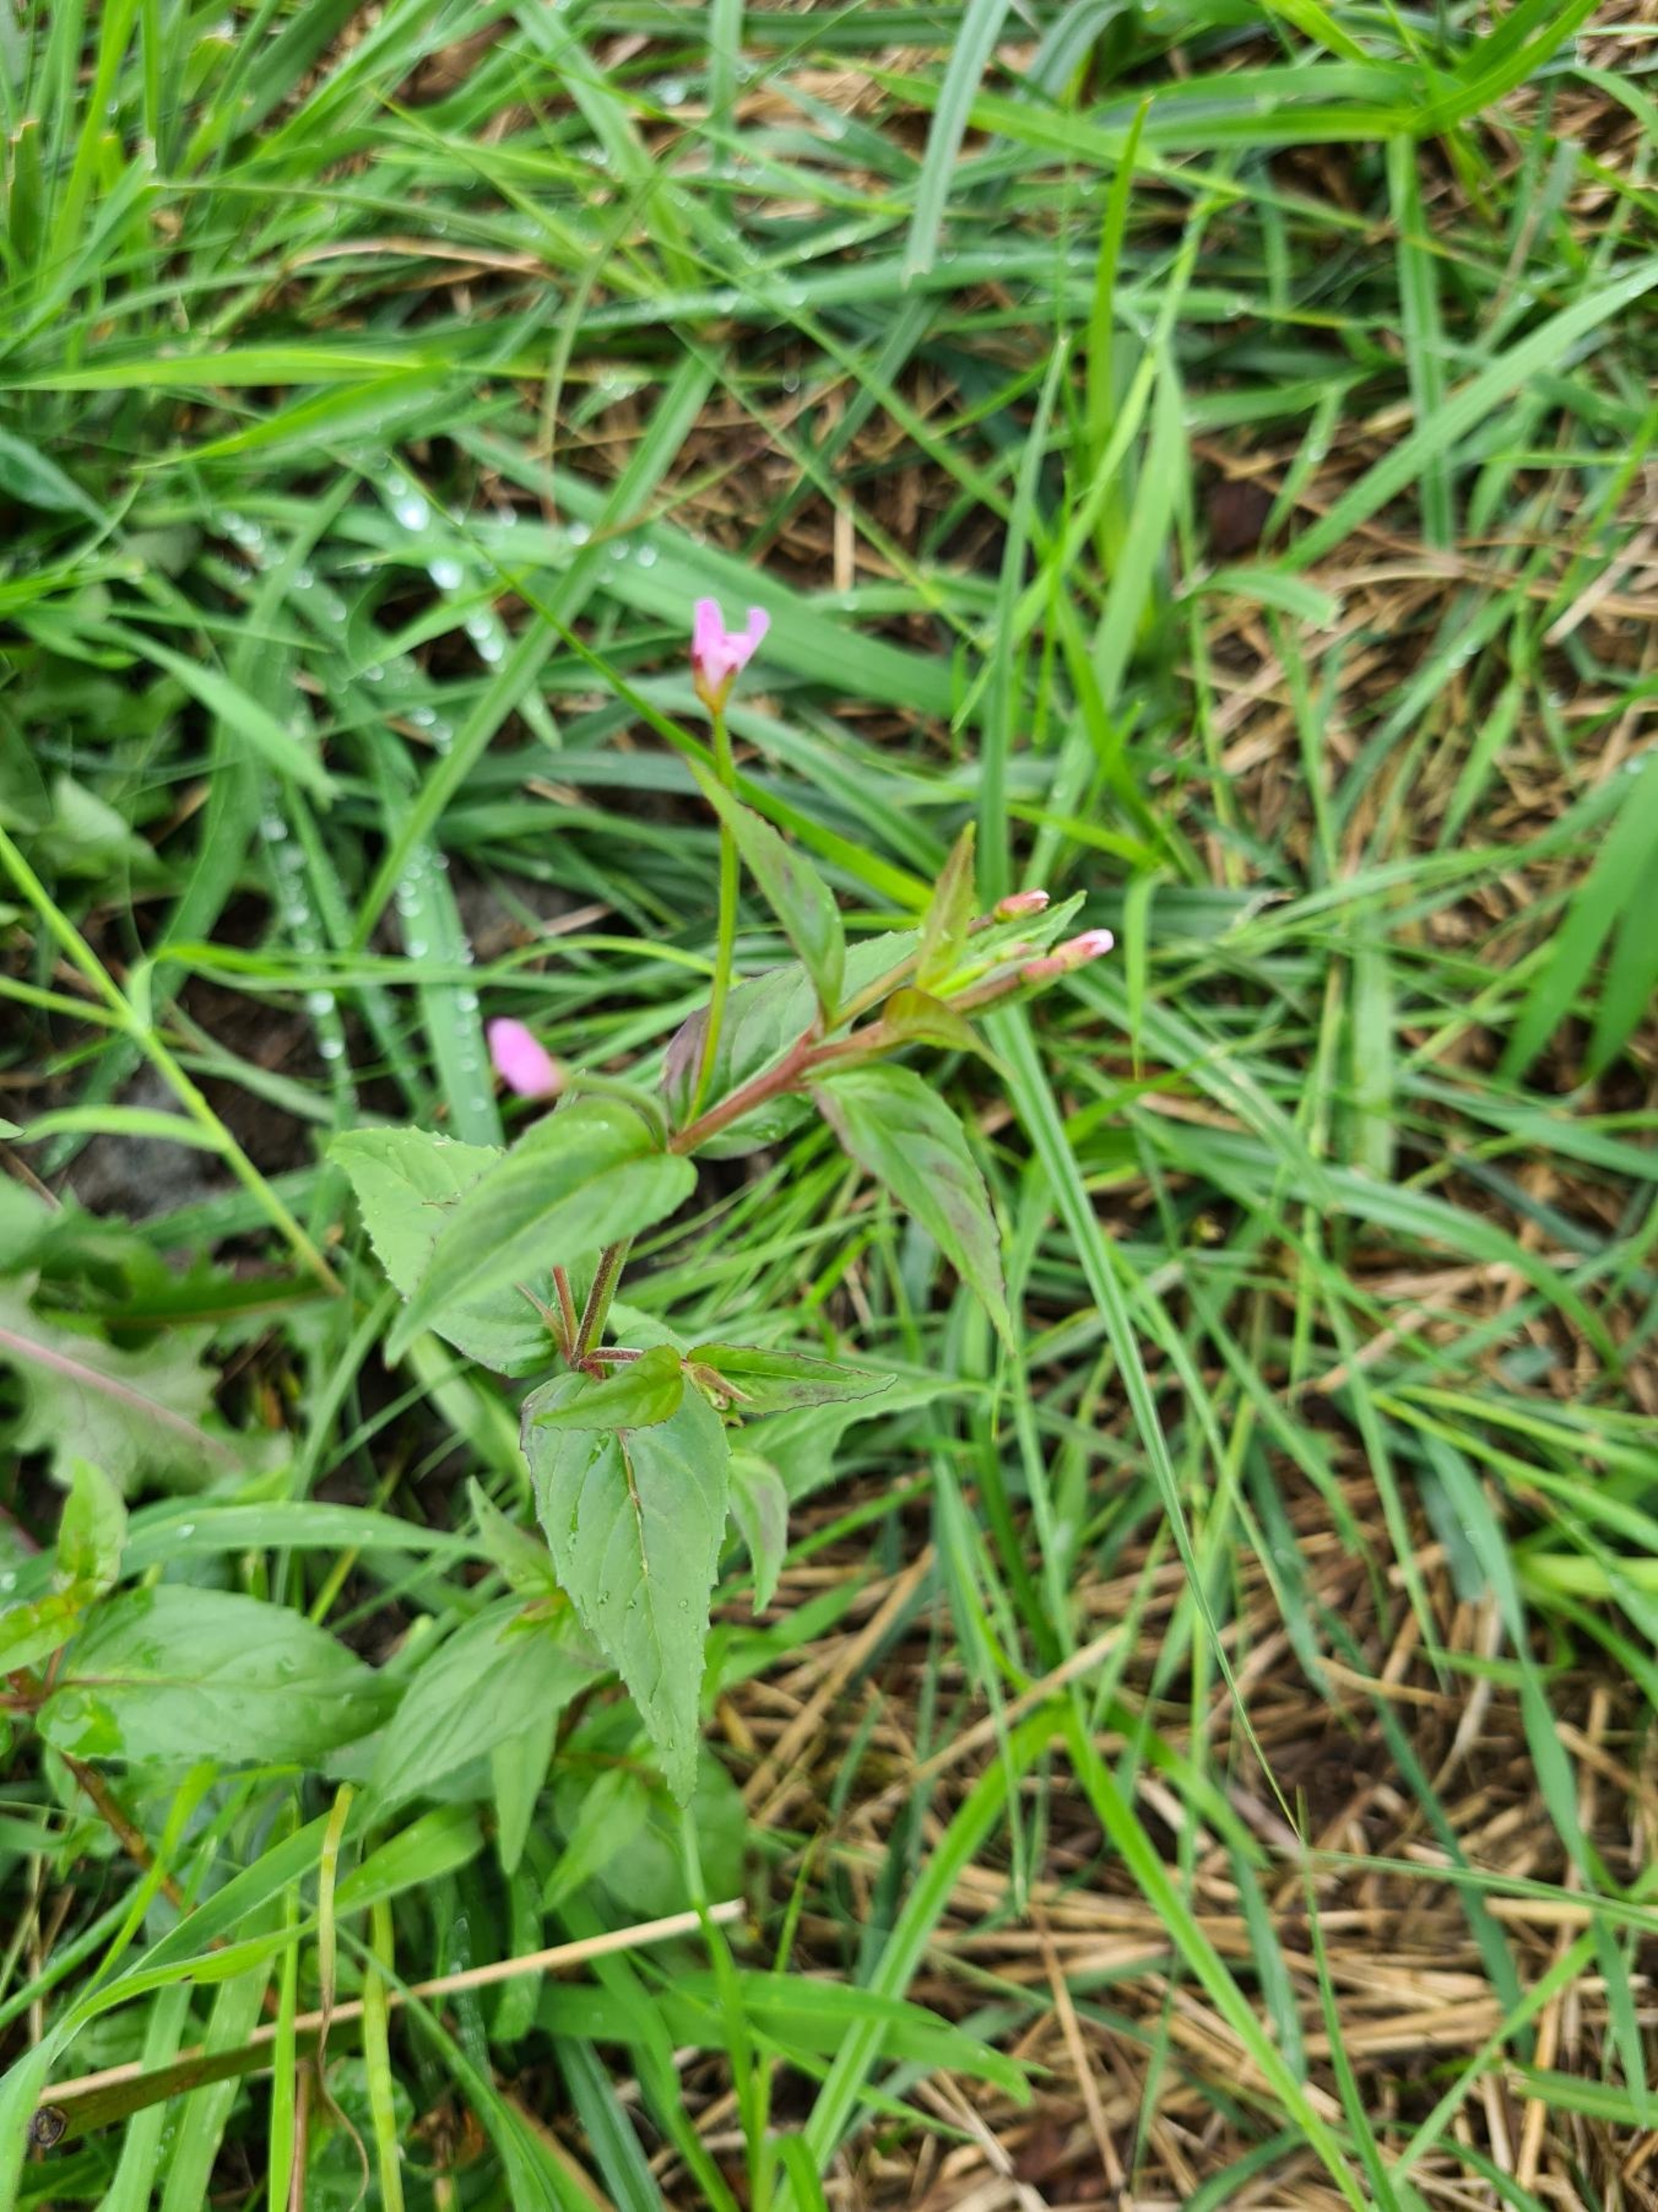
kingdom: Plantae
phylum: Tracheophyta
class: Magnoliopsida
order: Myrtales
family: Onagraceae
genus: Epilobium
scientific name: Epilobium ciliatum
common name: Kirtlet dueurt
